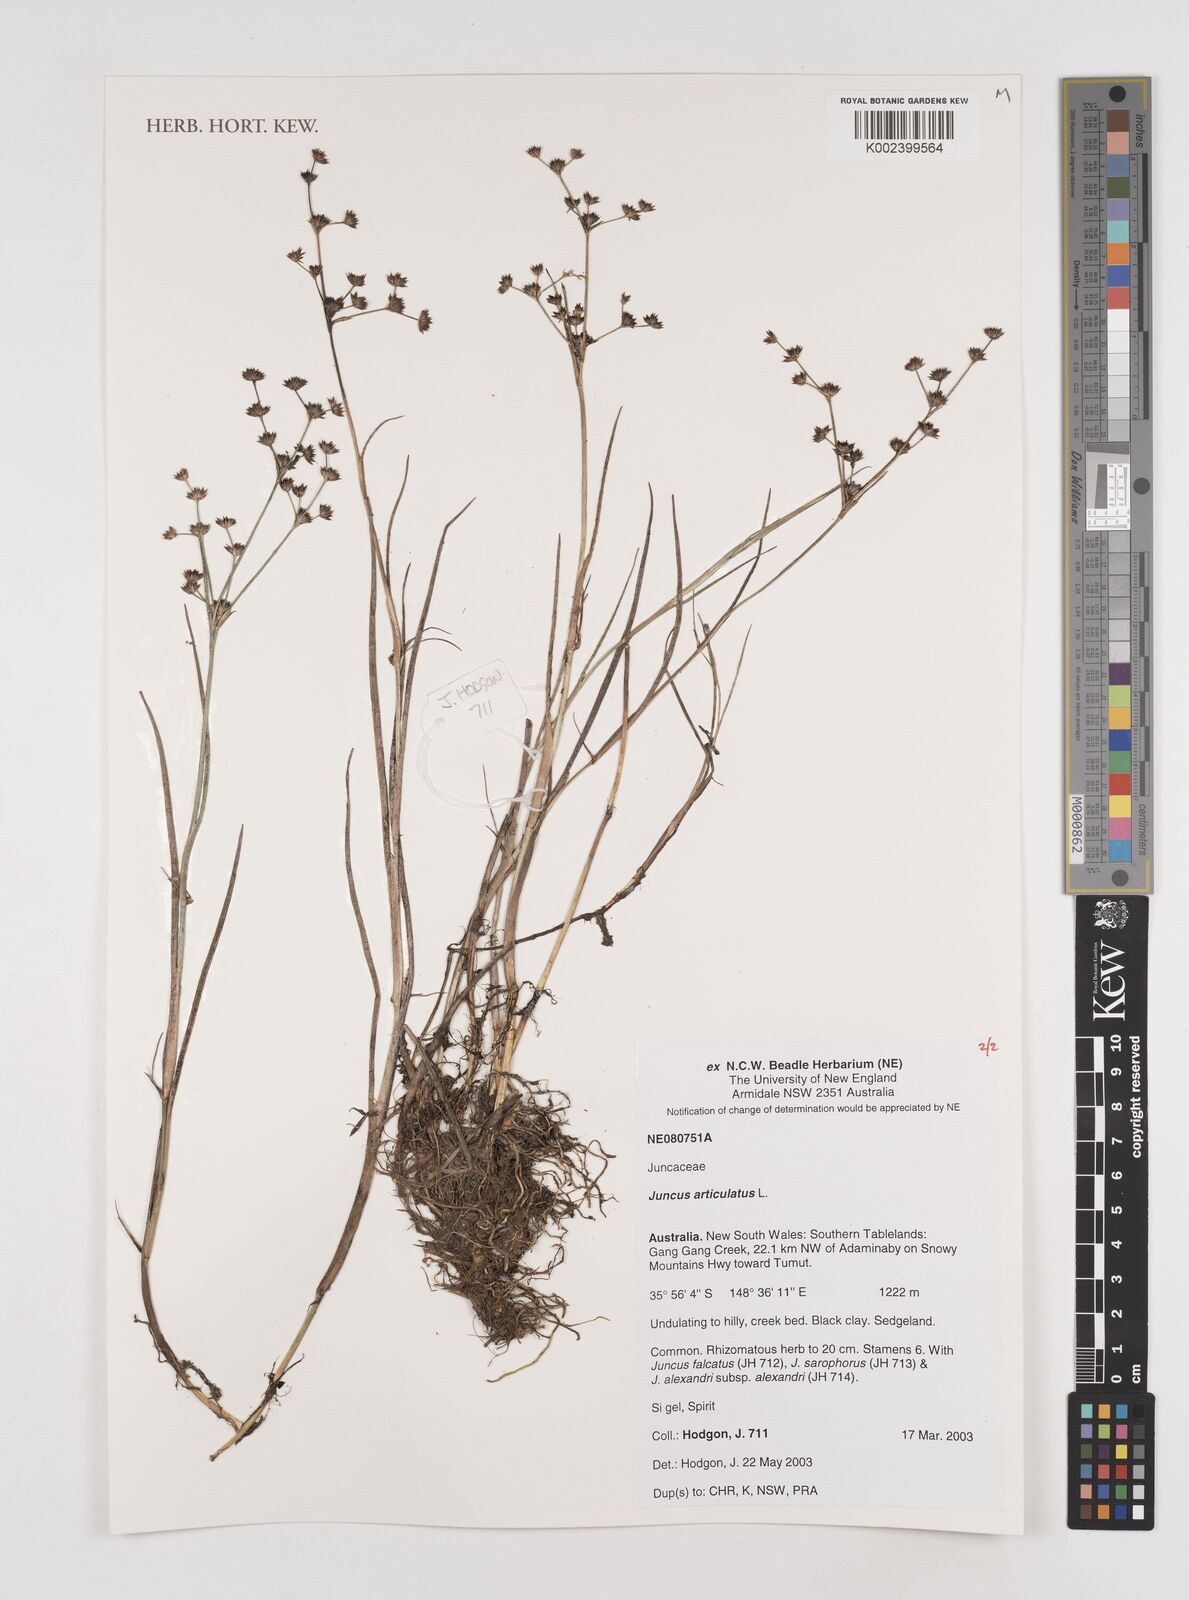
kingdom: Plantae
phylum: Tracheophyta
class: Liliopsida
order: Poales
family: Juncaceae
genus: Juncus
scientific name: Juncus articulatus
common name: Jointed rush
